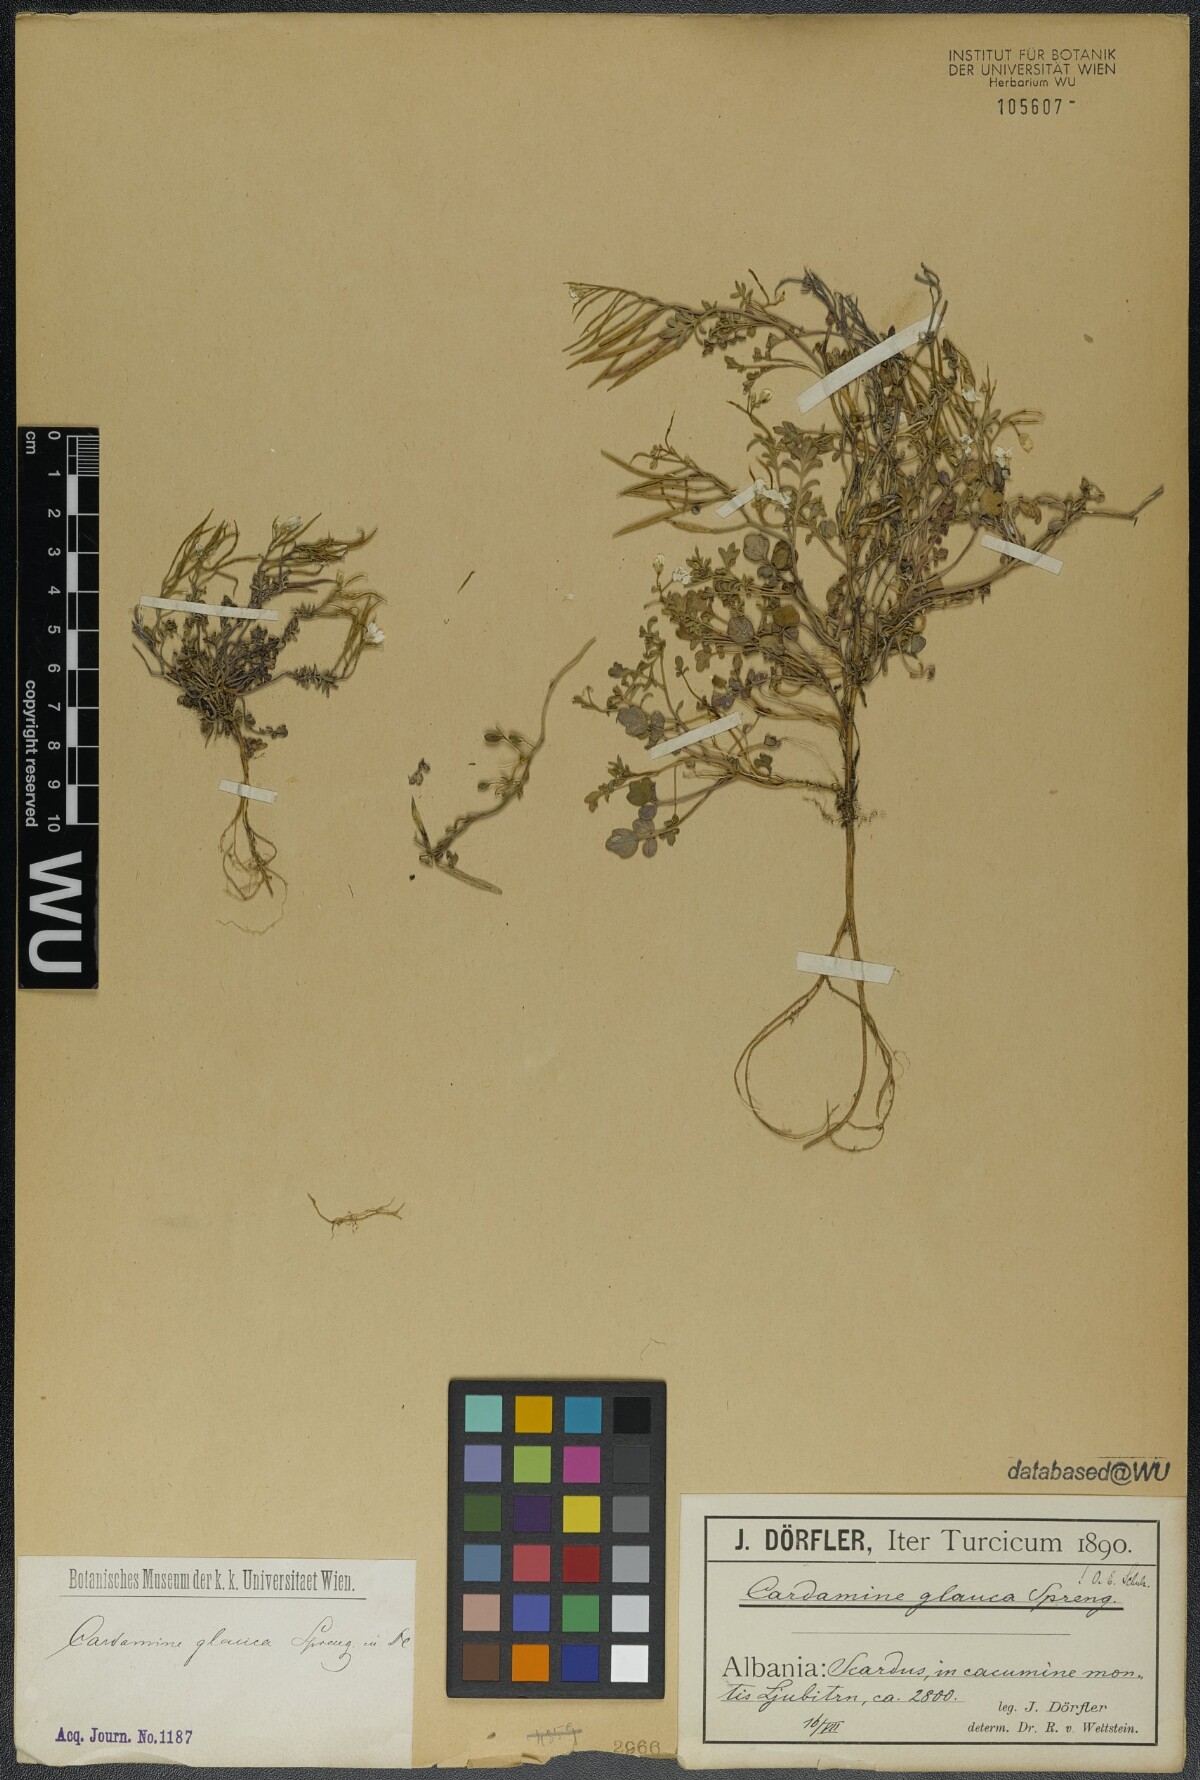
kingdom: Plantae
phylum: Tracheophyta
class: Magnoliopsida
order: Brassicales
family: Brassicaceae
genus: Cardamine
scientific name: Cardamine glauca
